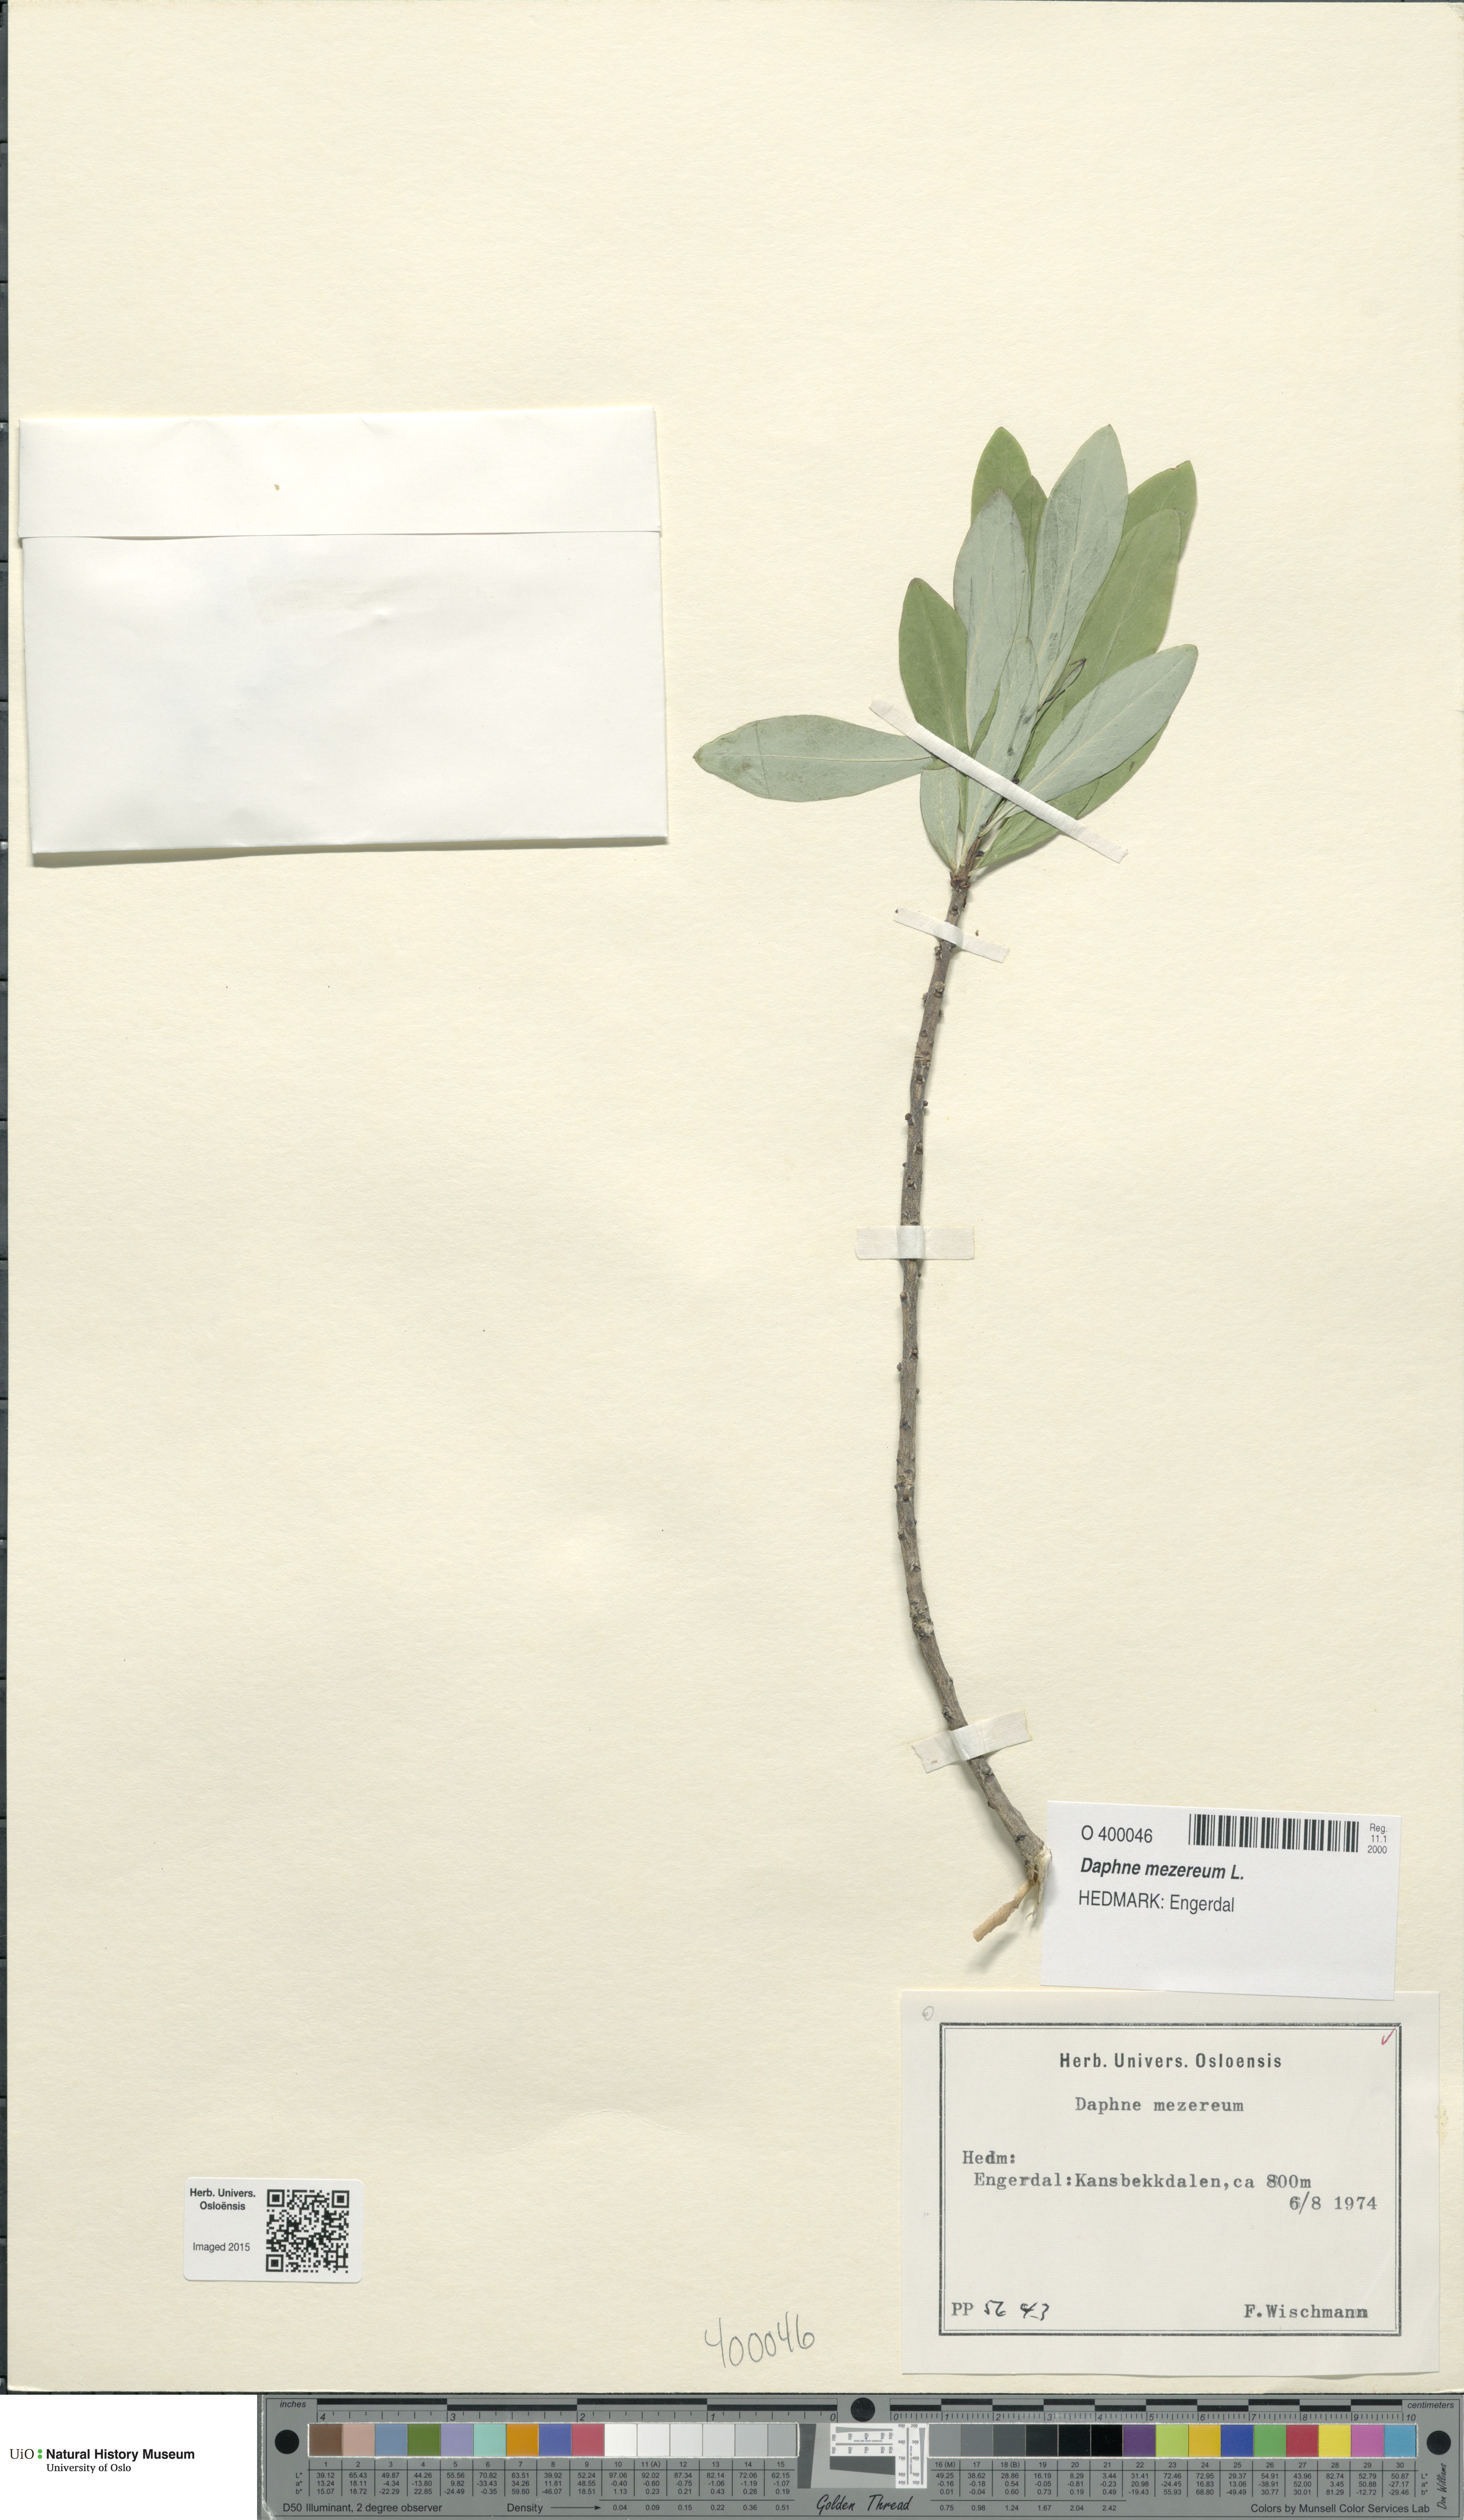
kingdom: Plantae
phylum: Tracheophyta
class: Magnoliopsida
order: Malvales
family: Thymelaeaceae
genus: Daphne
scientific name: Daphne mezereum
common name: Mezereon
